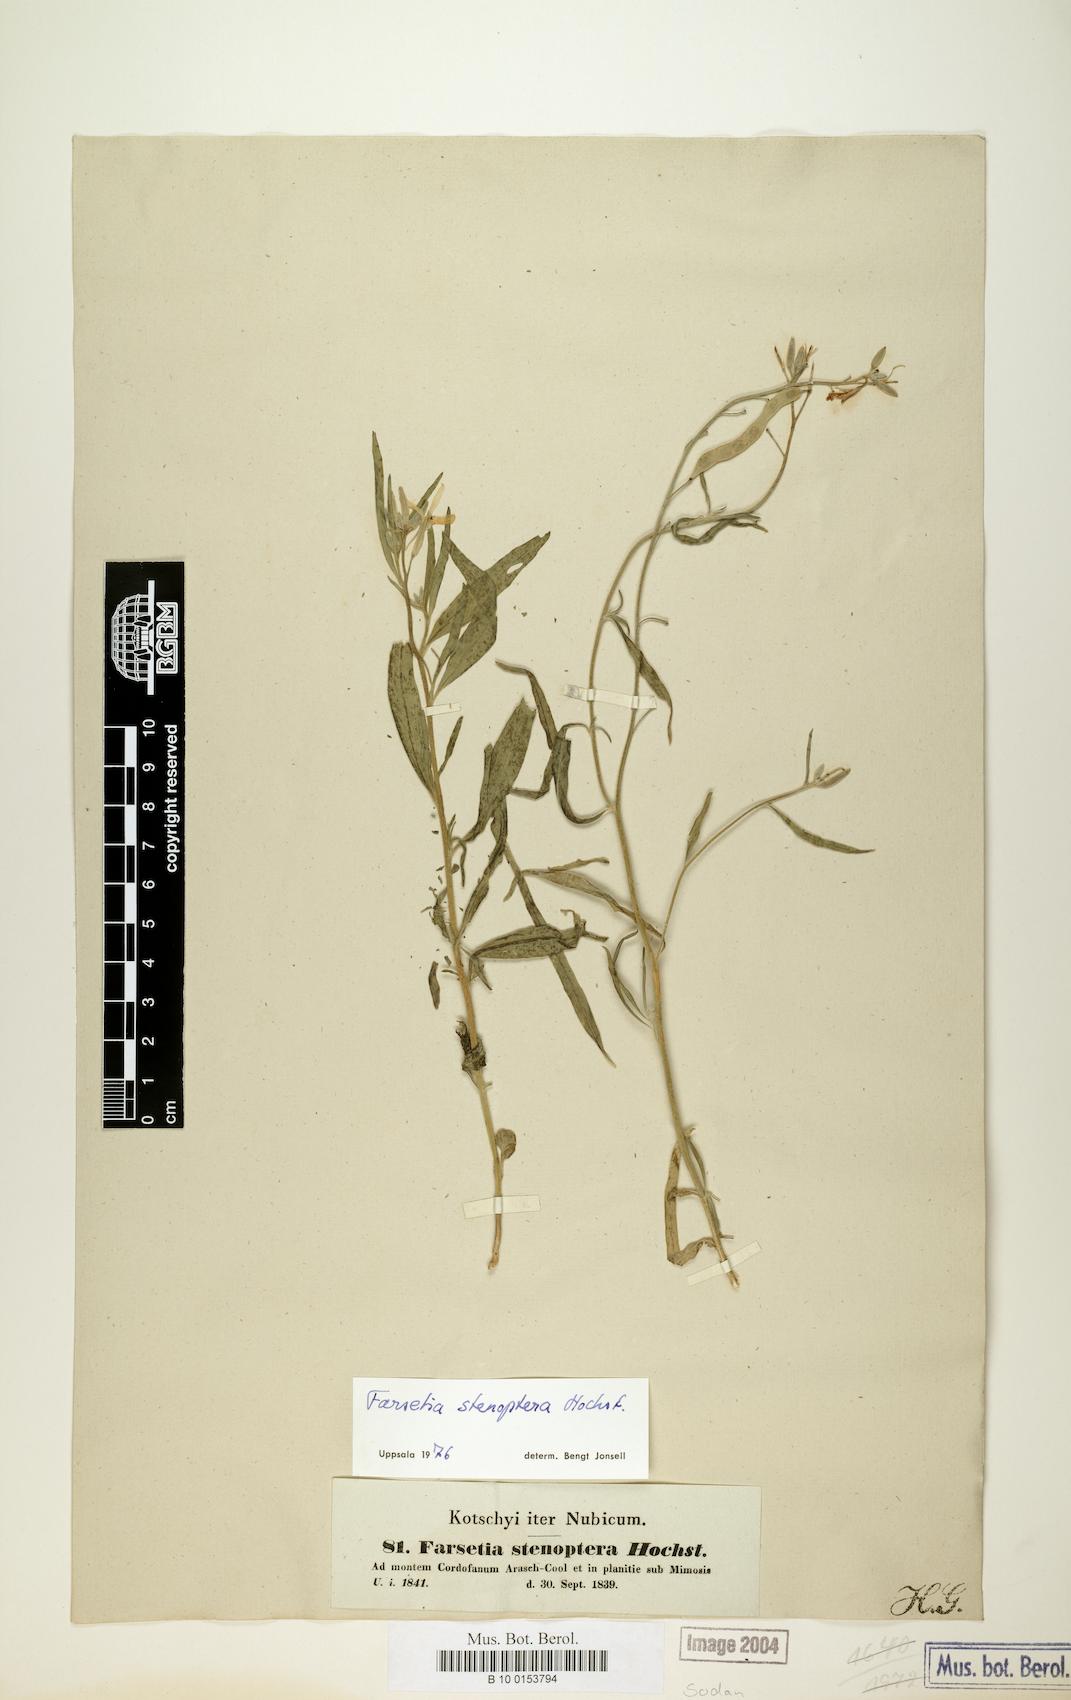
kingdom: Plantae
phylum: Tracheophyta
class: Magnoliopsida
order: Brassicales
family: Brassicaceae
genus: Farsetia
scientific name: Farsetia stenoptera
